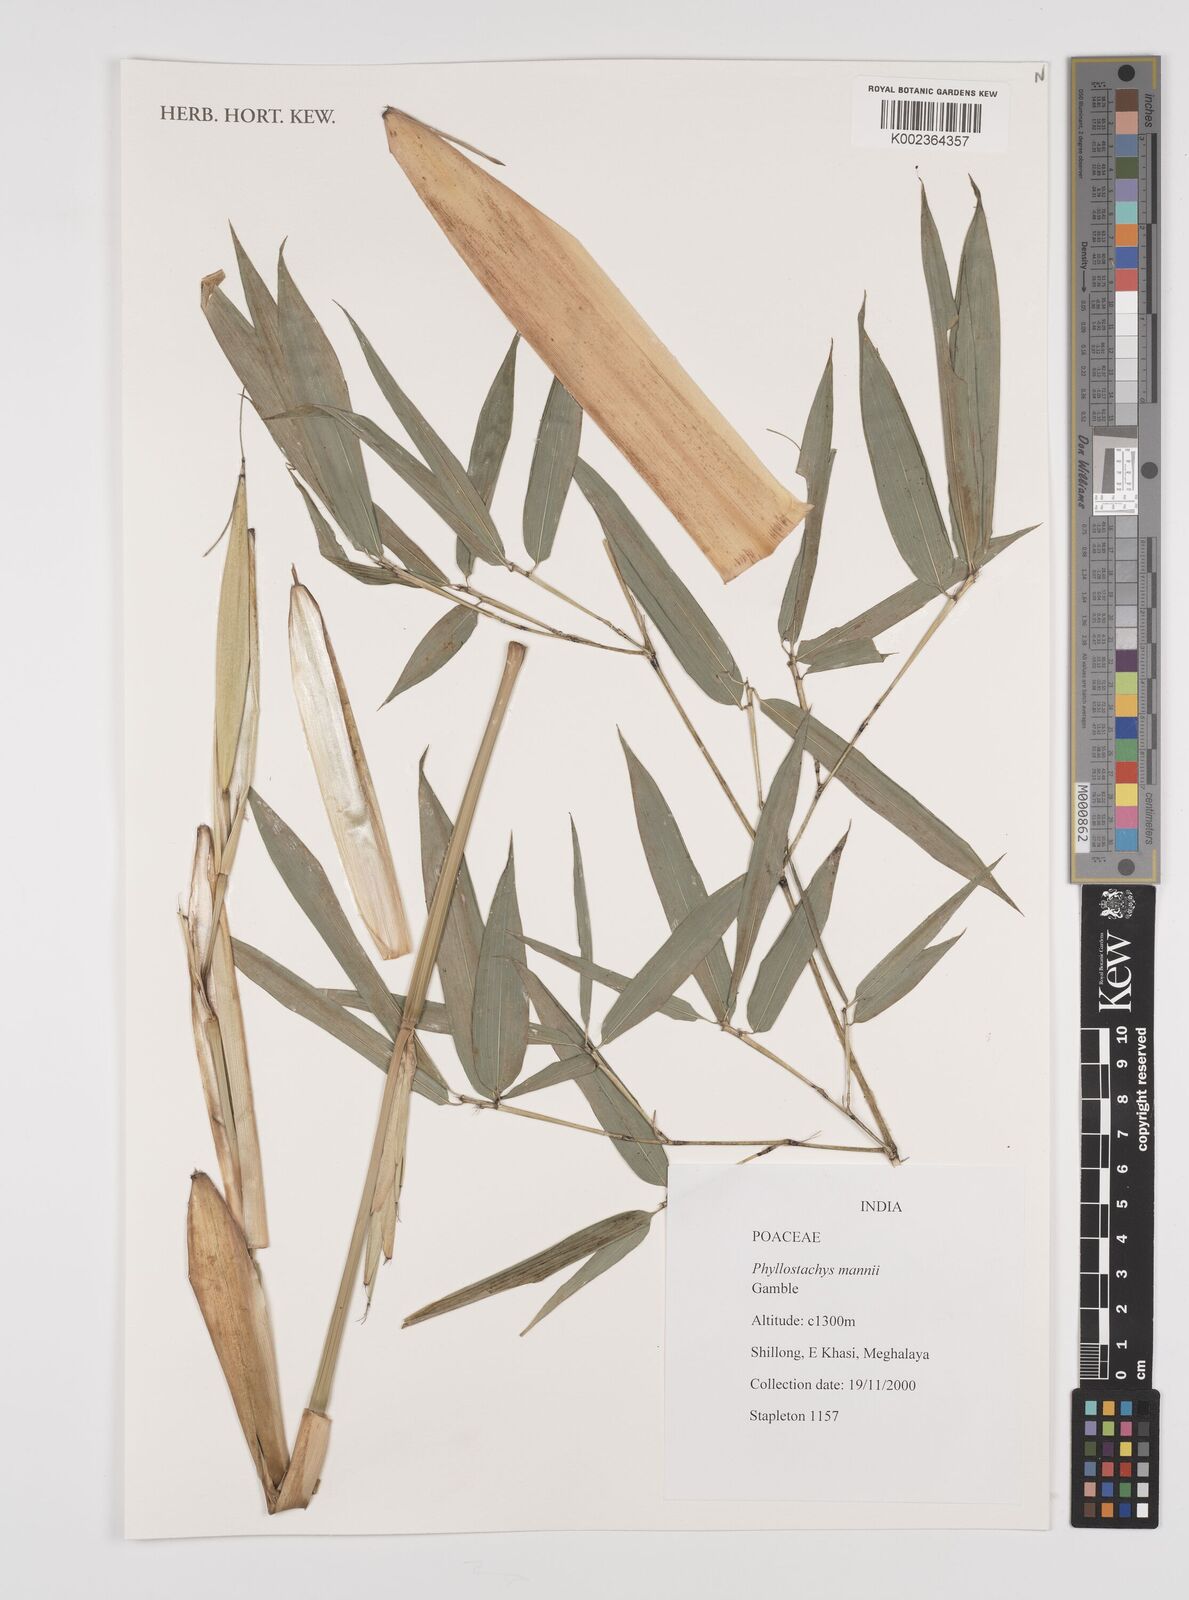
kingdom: Plantae
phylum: Tracheophyta
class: Liliopsida
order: Poales
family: Poaceae
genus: Phyllostachys
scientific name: Phyllostachys mannii
